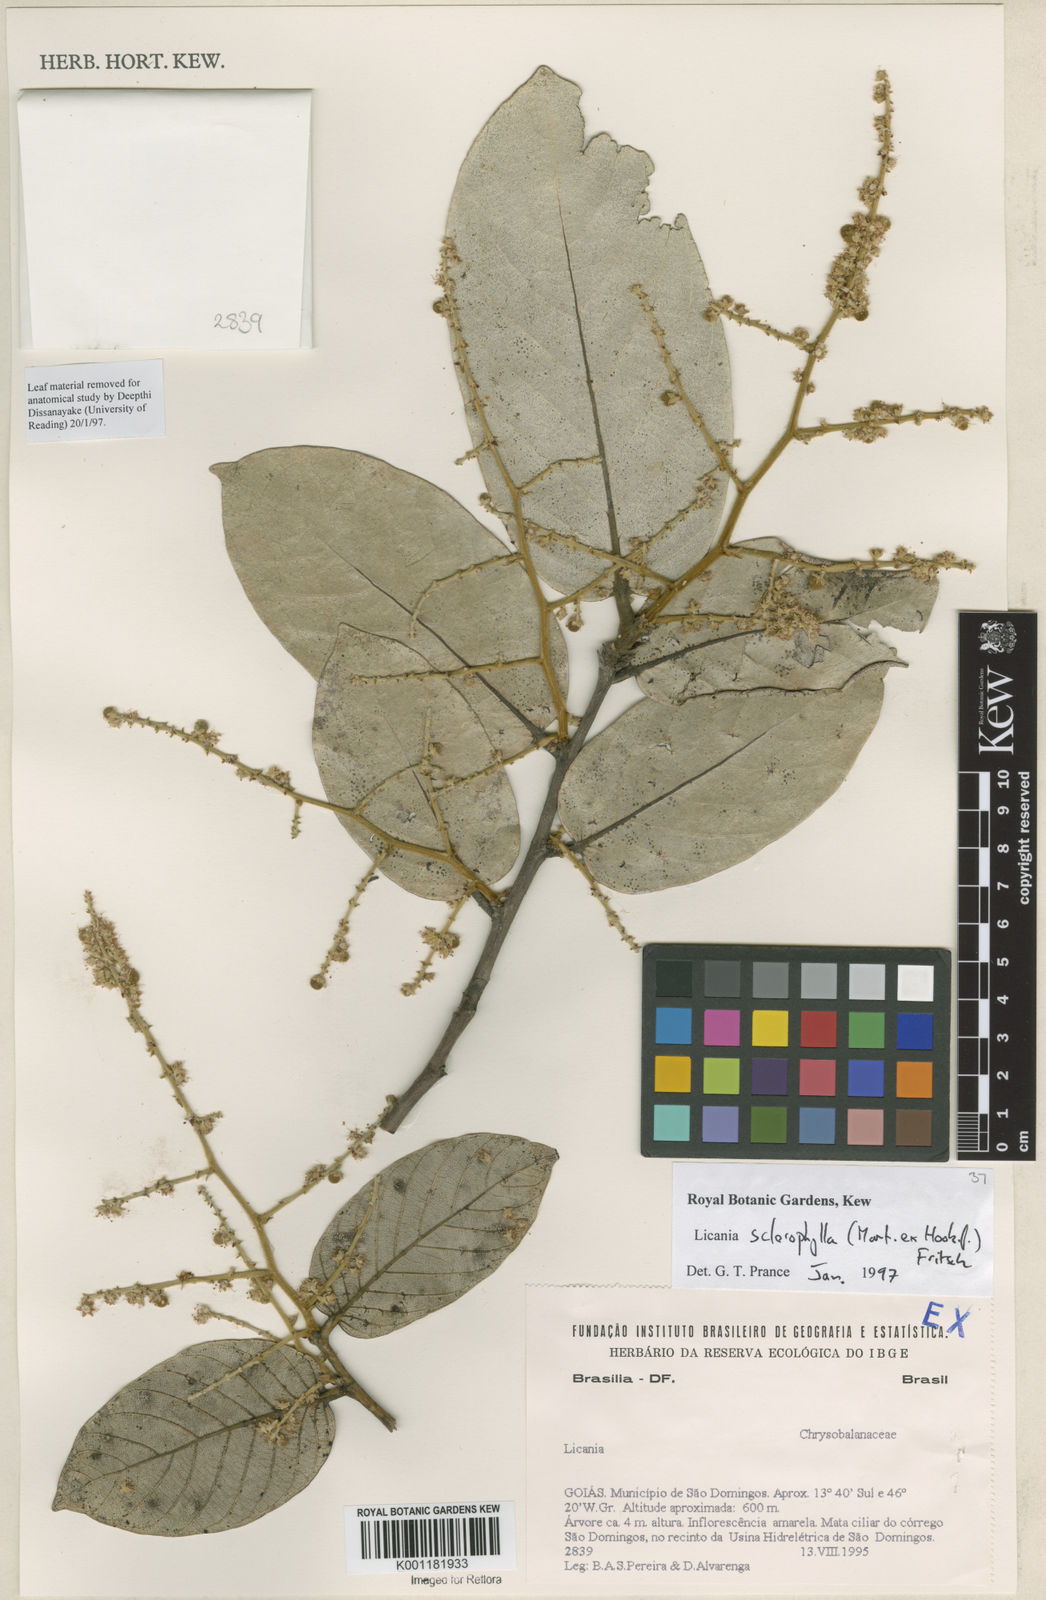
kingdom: Plantae
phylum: Tracheophyta
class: Magnoliopsida
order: Malpighiales
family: Chrysobalanaceae
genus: Leptobalanus
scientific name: Leptobalanus sclerophyllus
